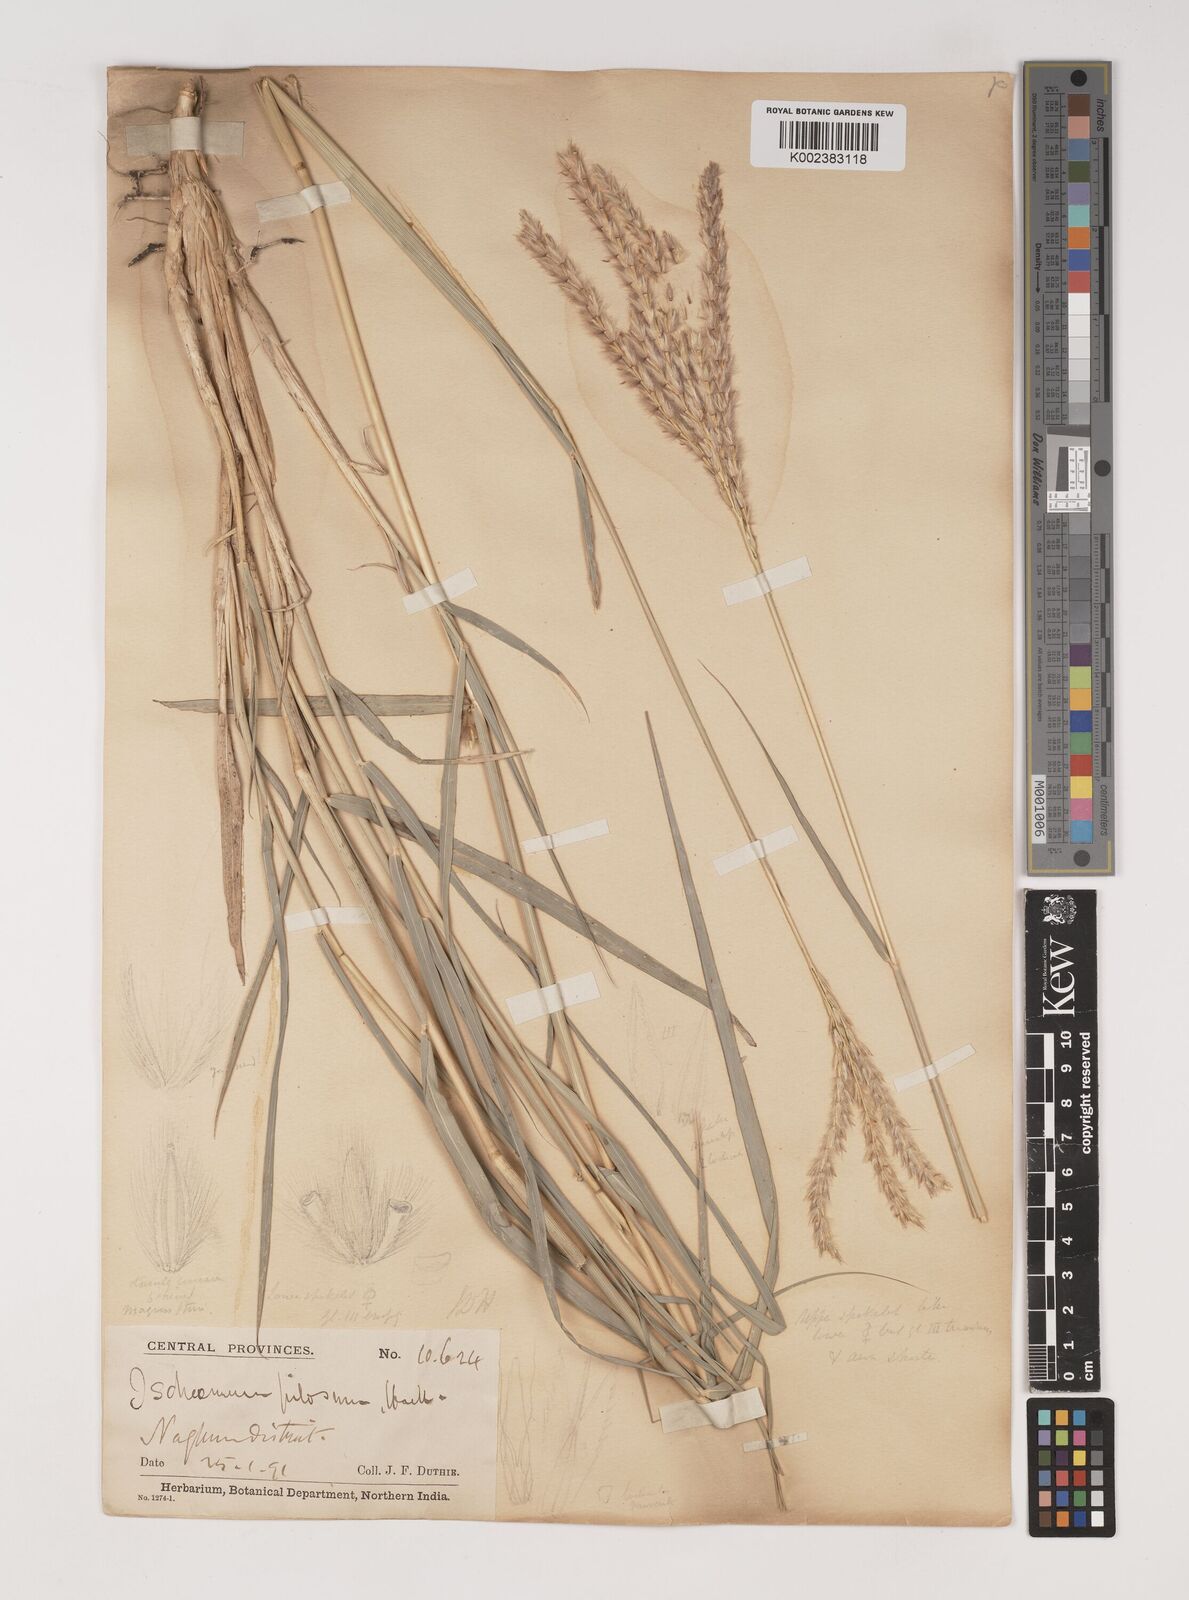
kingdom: Plantae
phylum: Tracheophyta
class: Liliopsida
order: Poales
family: Poaceae
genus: Ischaemum
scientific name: Ischaemum afrum
